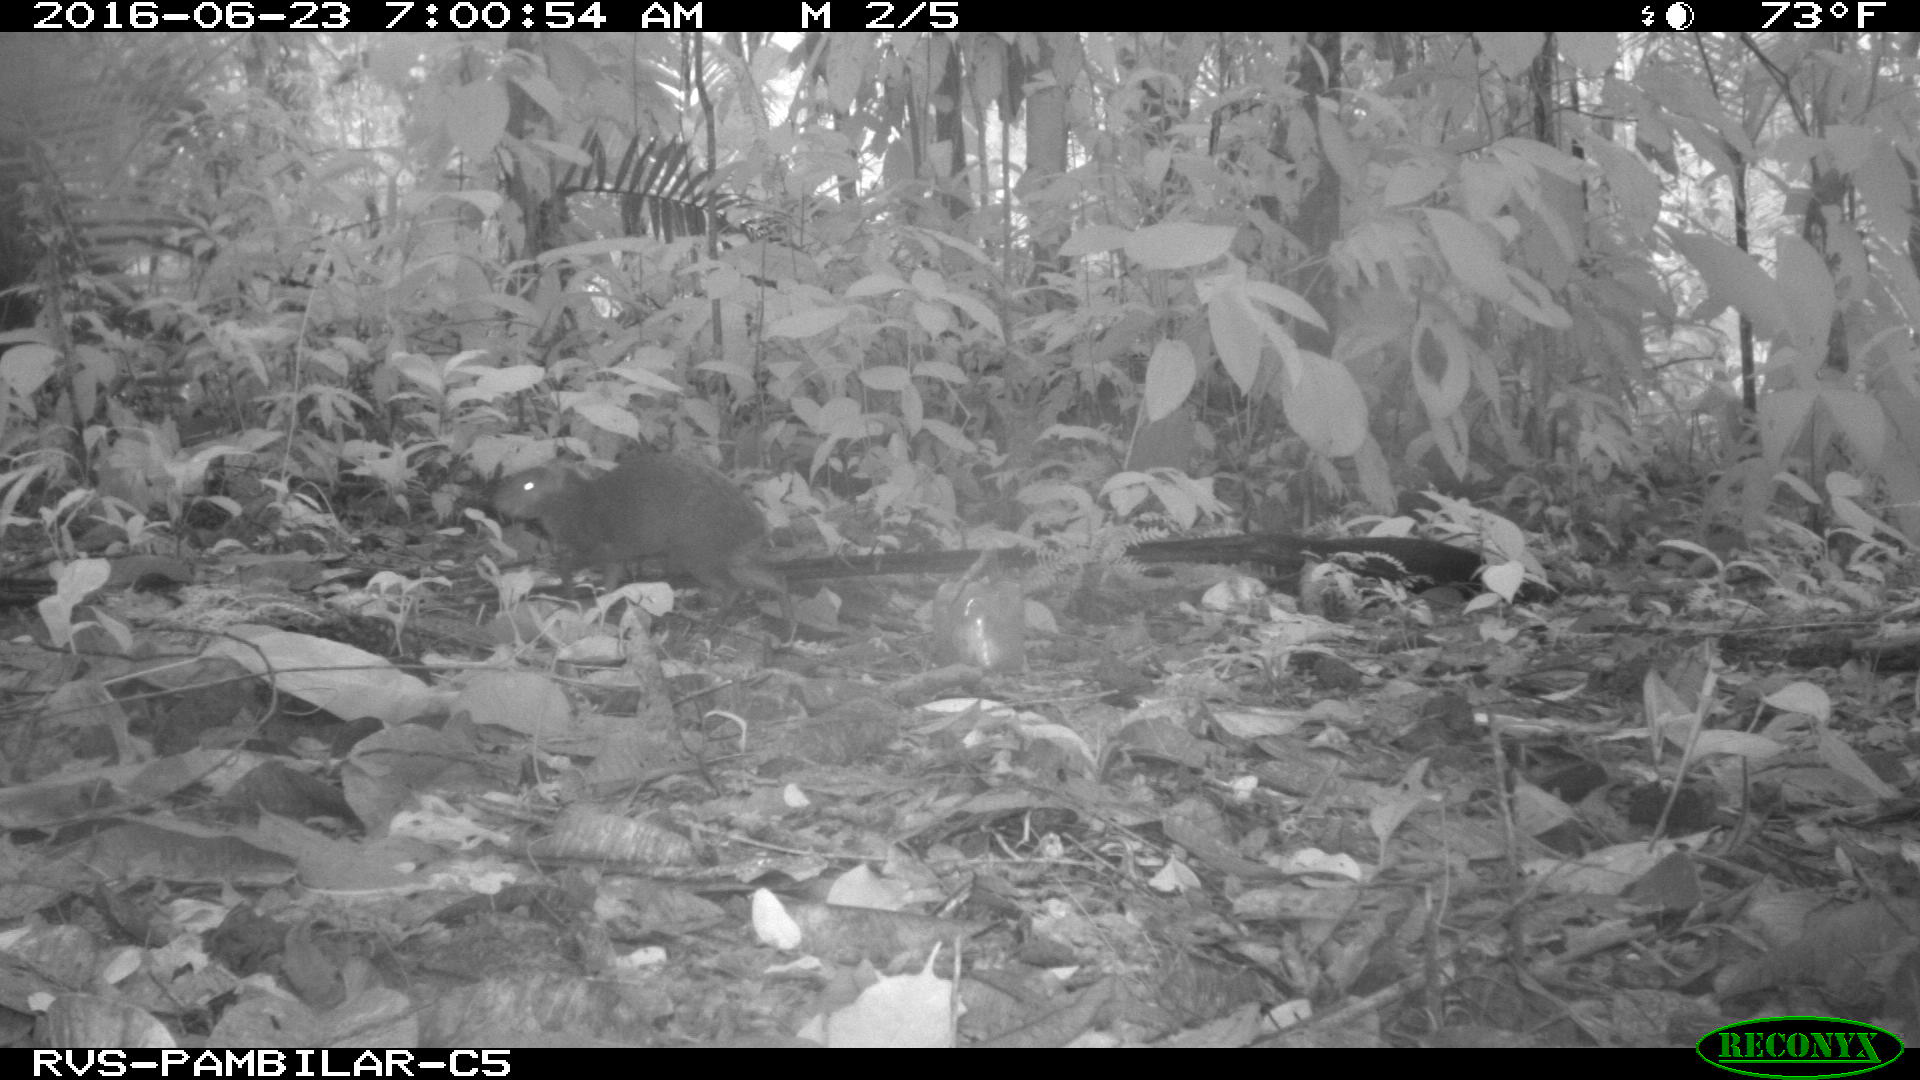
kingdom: Animalia
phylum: Chordata
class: Mammalia
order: Rodentia
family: Dasyproctidae
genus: Dasyprocta
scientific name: Dasyprocta punctata
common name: Central american agouti
